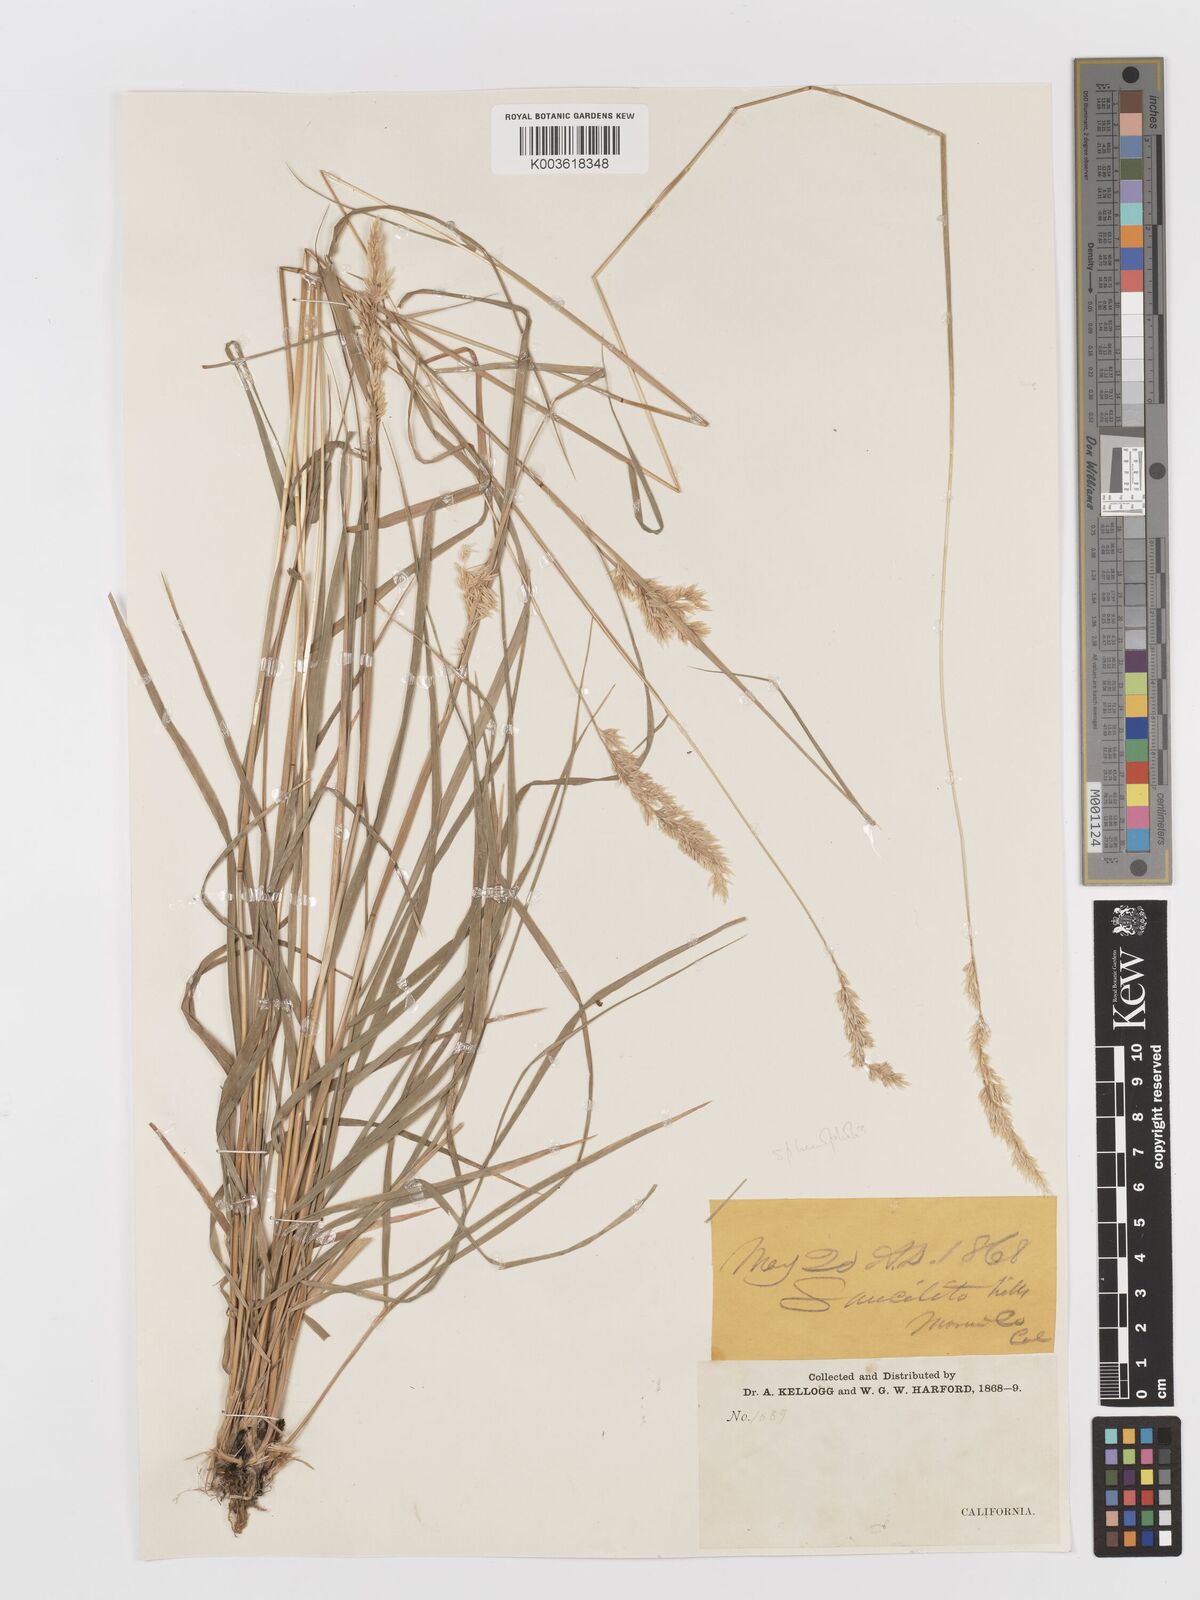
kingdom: Plantae
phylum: Tracheophyta
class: Liliopsida
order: Poales
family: Poaceae
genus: Koeleria
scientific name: Koeleria
